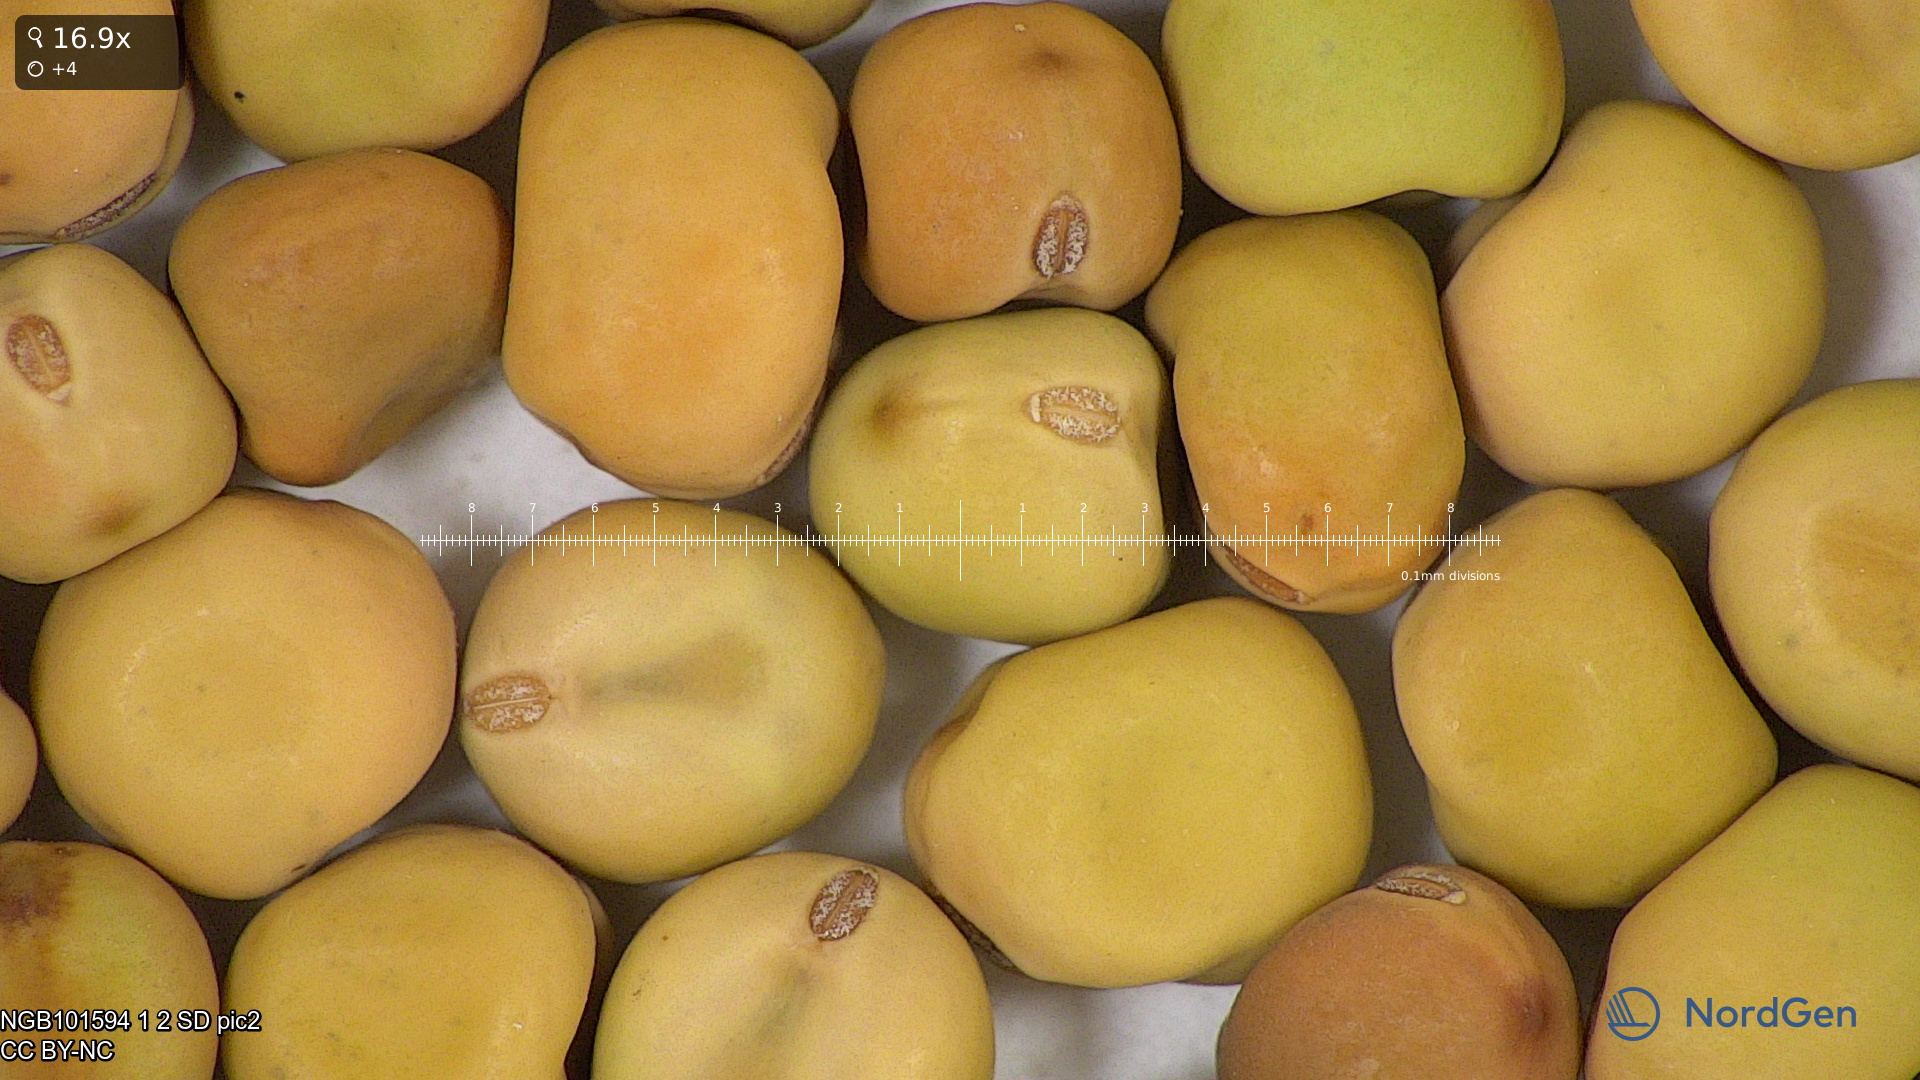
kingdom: Plantae
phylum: Tracheophyta
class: Magnoliopsida
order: Fabales
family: Fabaceae
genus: Lathyrus
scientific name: Lathyrus oleraceus
